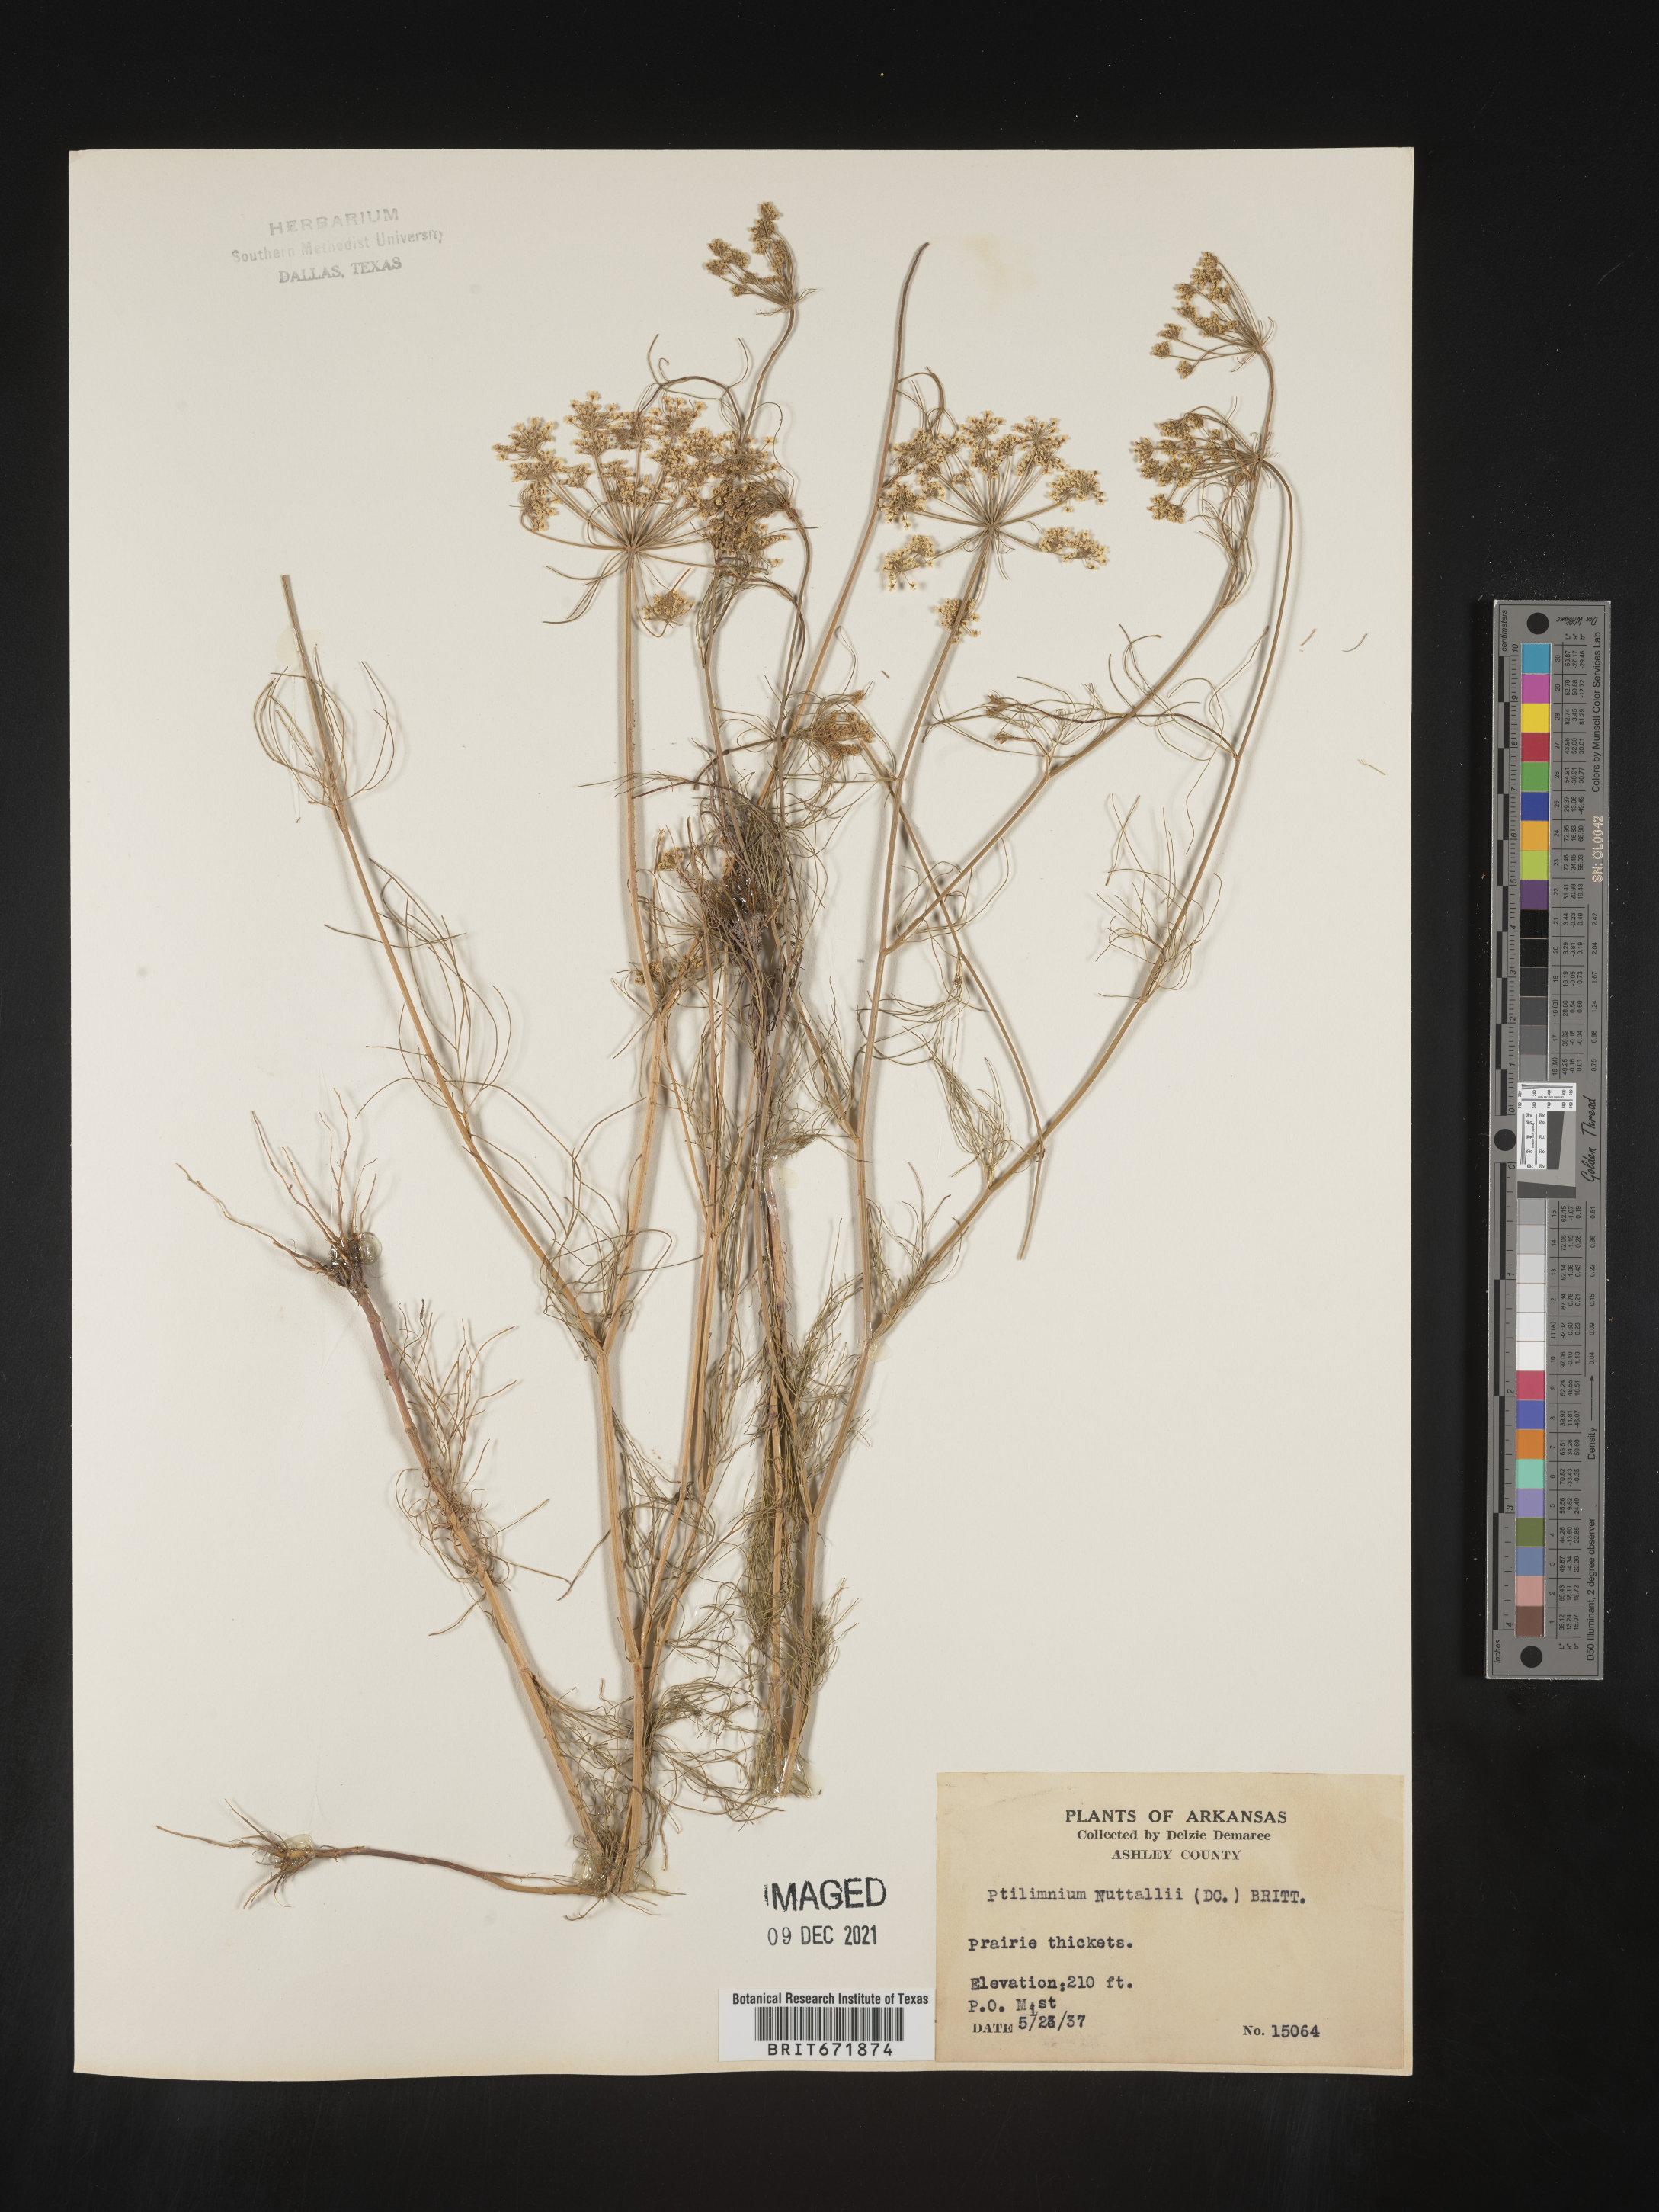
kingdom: Plantae
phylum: Tracheophyta
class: Magnoliopsida
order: Apiales
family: Apiaceae
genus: Ptilimnium
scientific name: Ptilimnium nuttallii
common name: Ozark bishop's-weed
